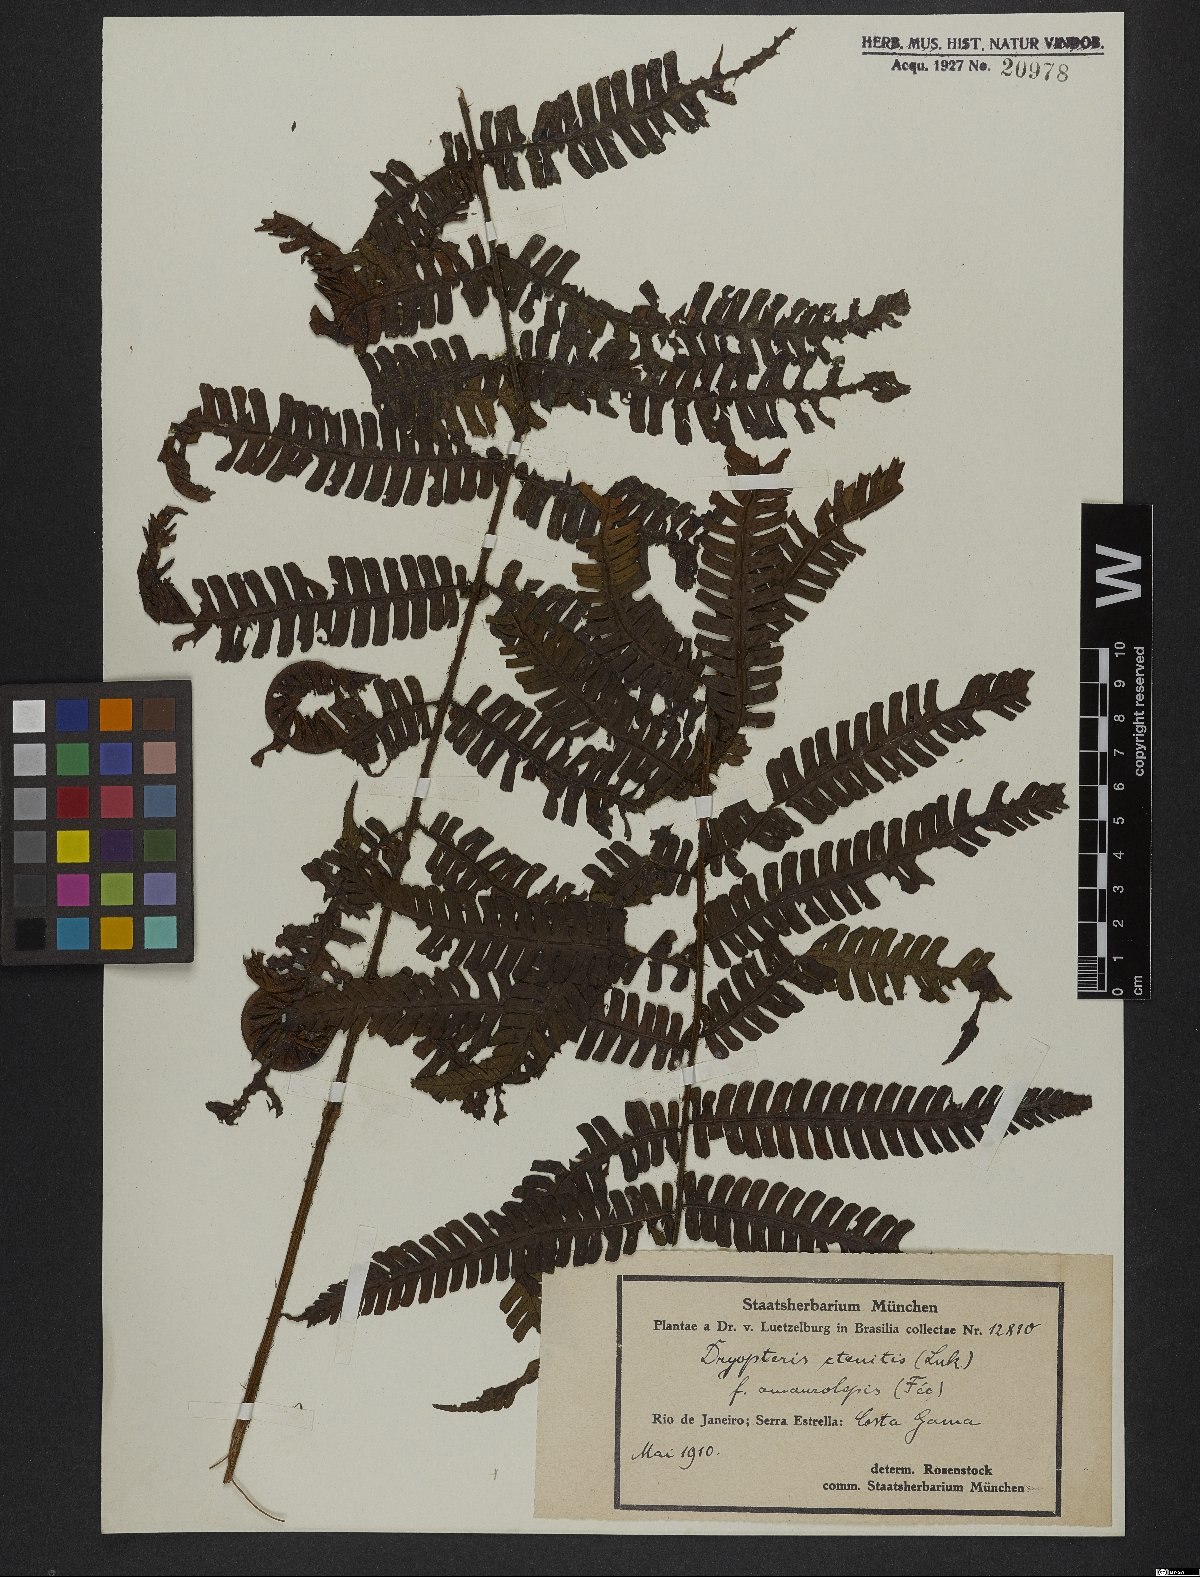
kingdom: Plantae
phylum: Tracheophyta
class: Polypodiopsida
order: Polypodiales
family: Dryopteridaceae
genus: Ctenitis
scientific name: Ctenitis distans
